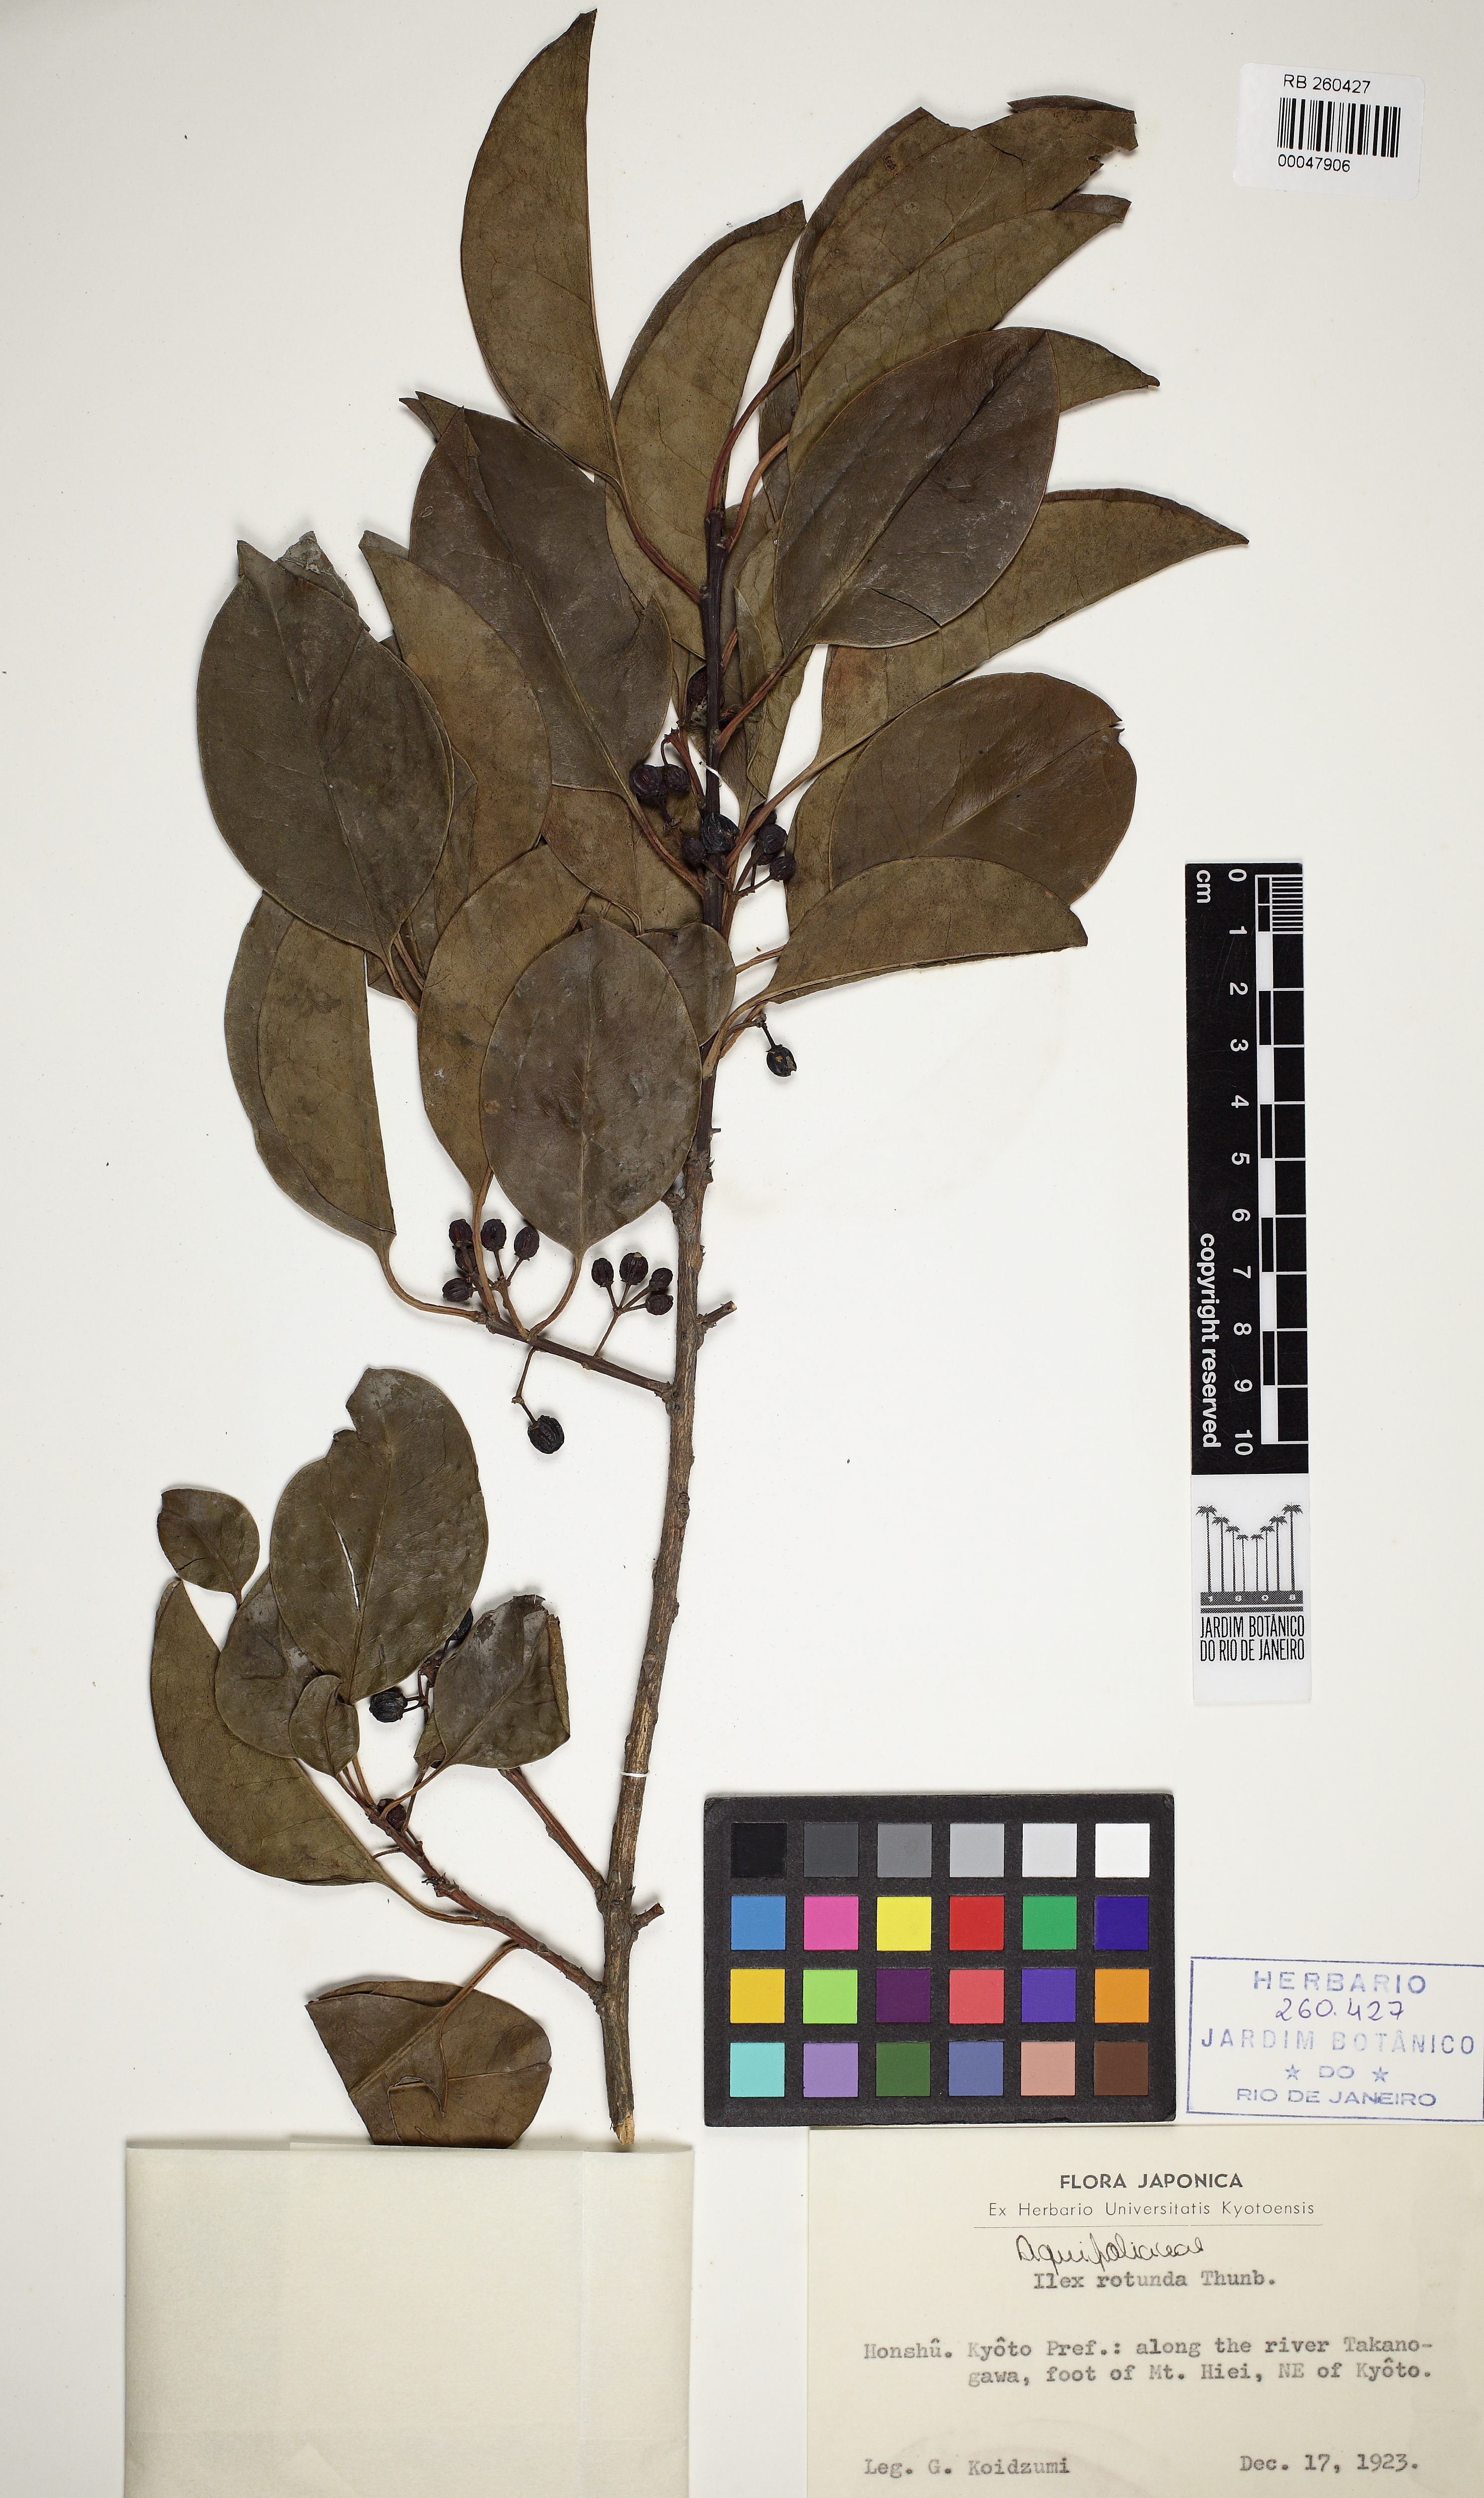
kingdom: Plantae
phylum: Tracheophyta
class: Magnoliopsida
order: Aquifoliales
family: Aquifoliaceae
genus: Ilex
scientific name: Ilex rotunda
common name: Kurogane holly
